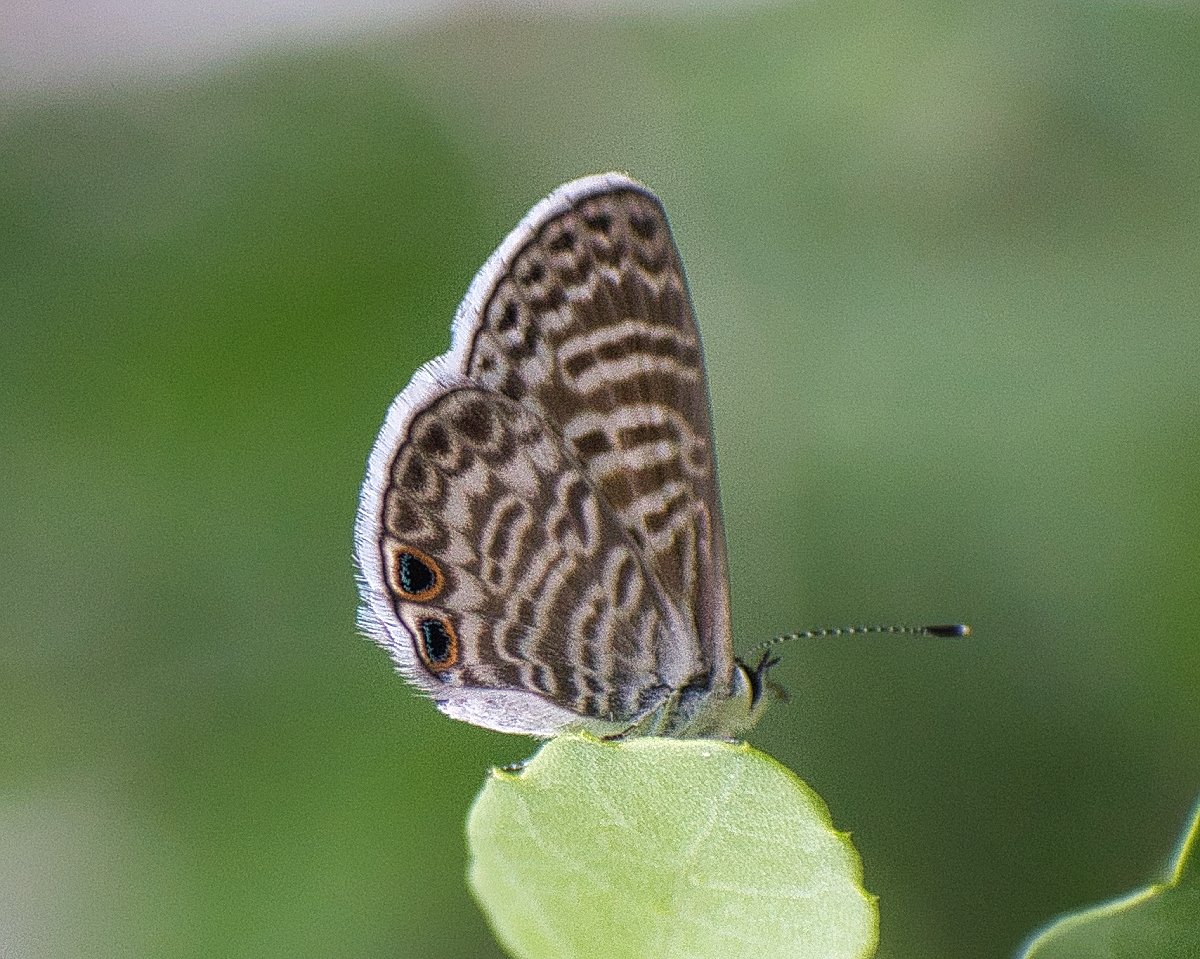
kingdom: Animalia
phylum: Arthropoda
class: Insecta
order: Lepidoptera
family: Lycaenidae
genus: Leptotes
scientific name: Leptotes marina
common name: Marine Blue
